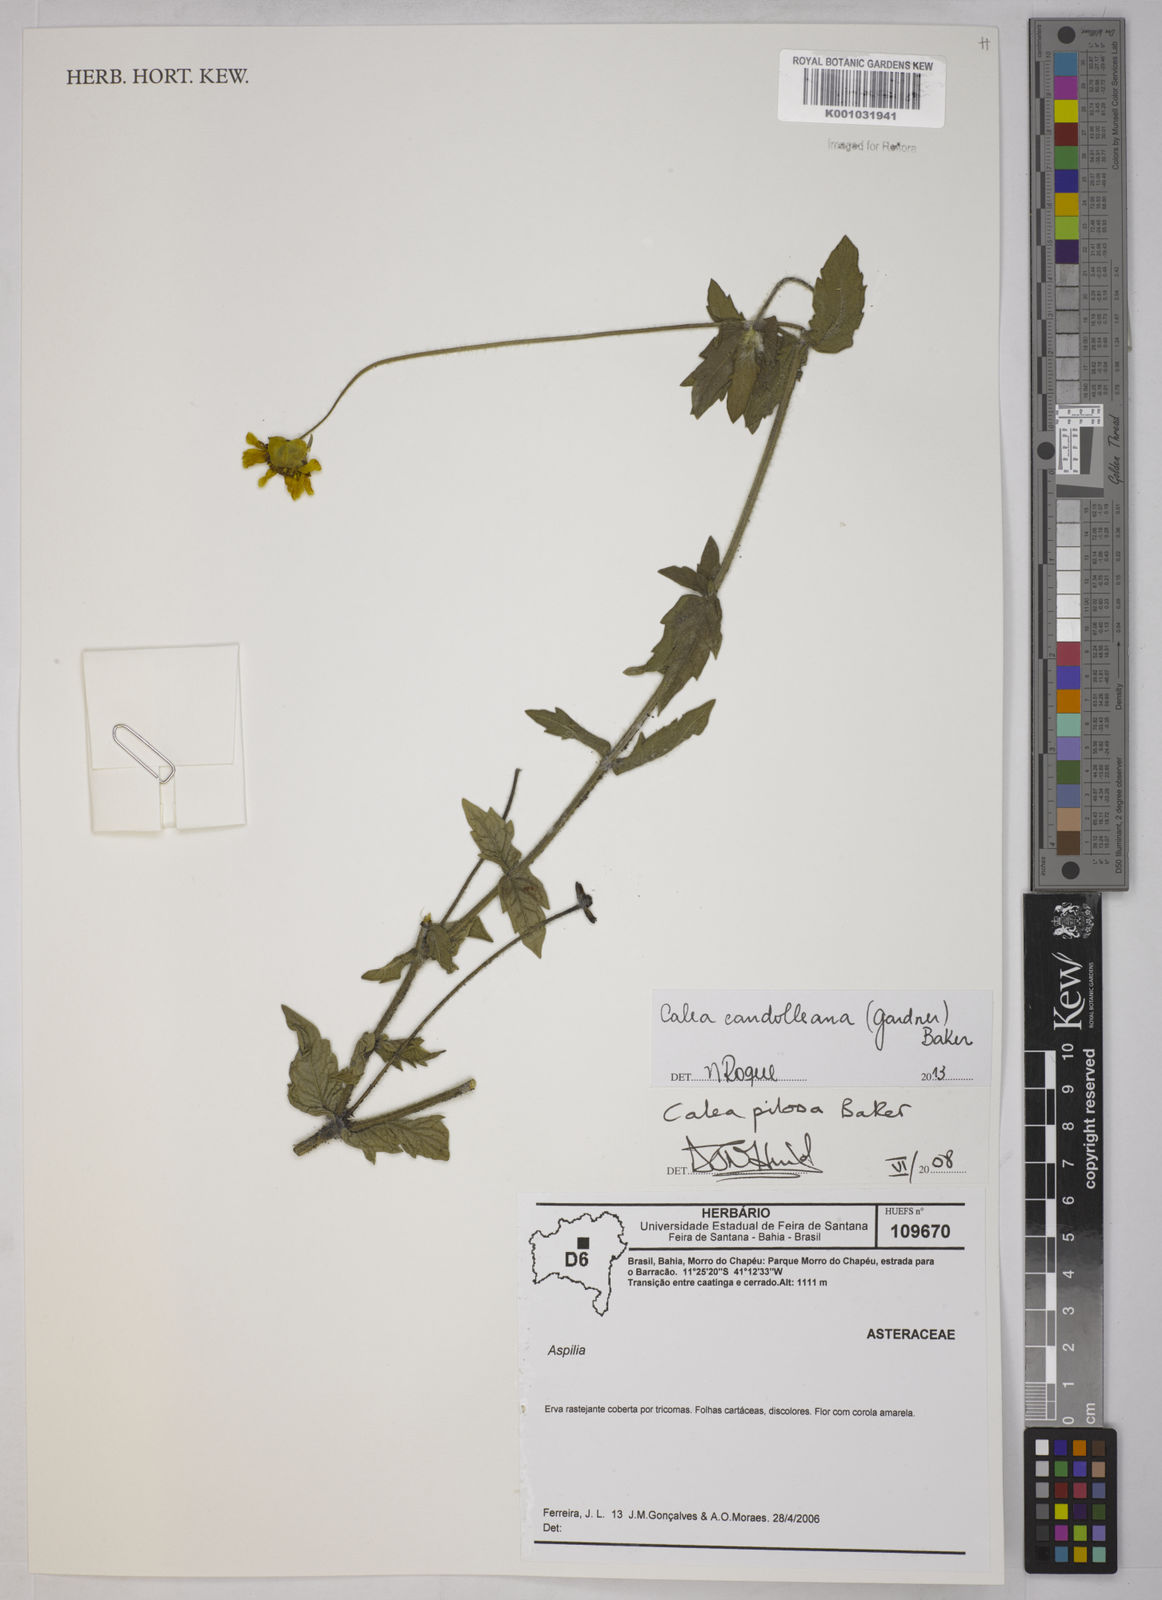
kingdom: Plantae
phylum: Tracheophyta
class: Magnoliopsida
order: Asterales
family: Asteraceae
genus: Calea
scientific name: Calea candolleana
